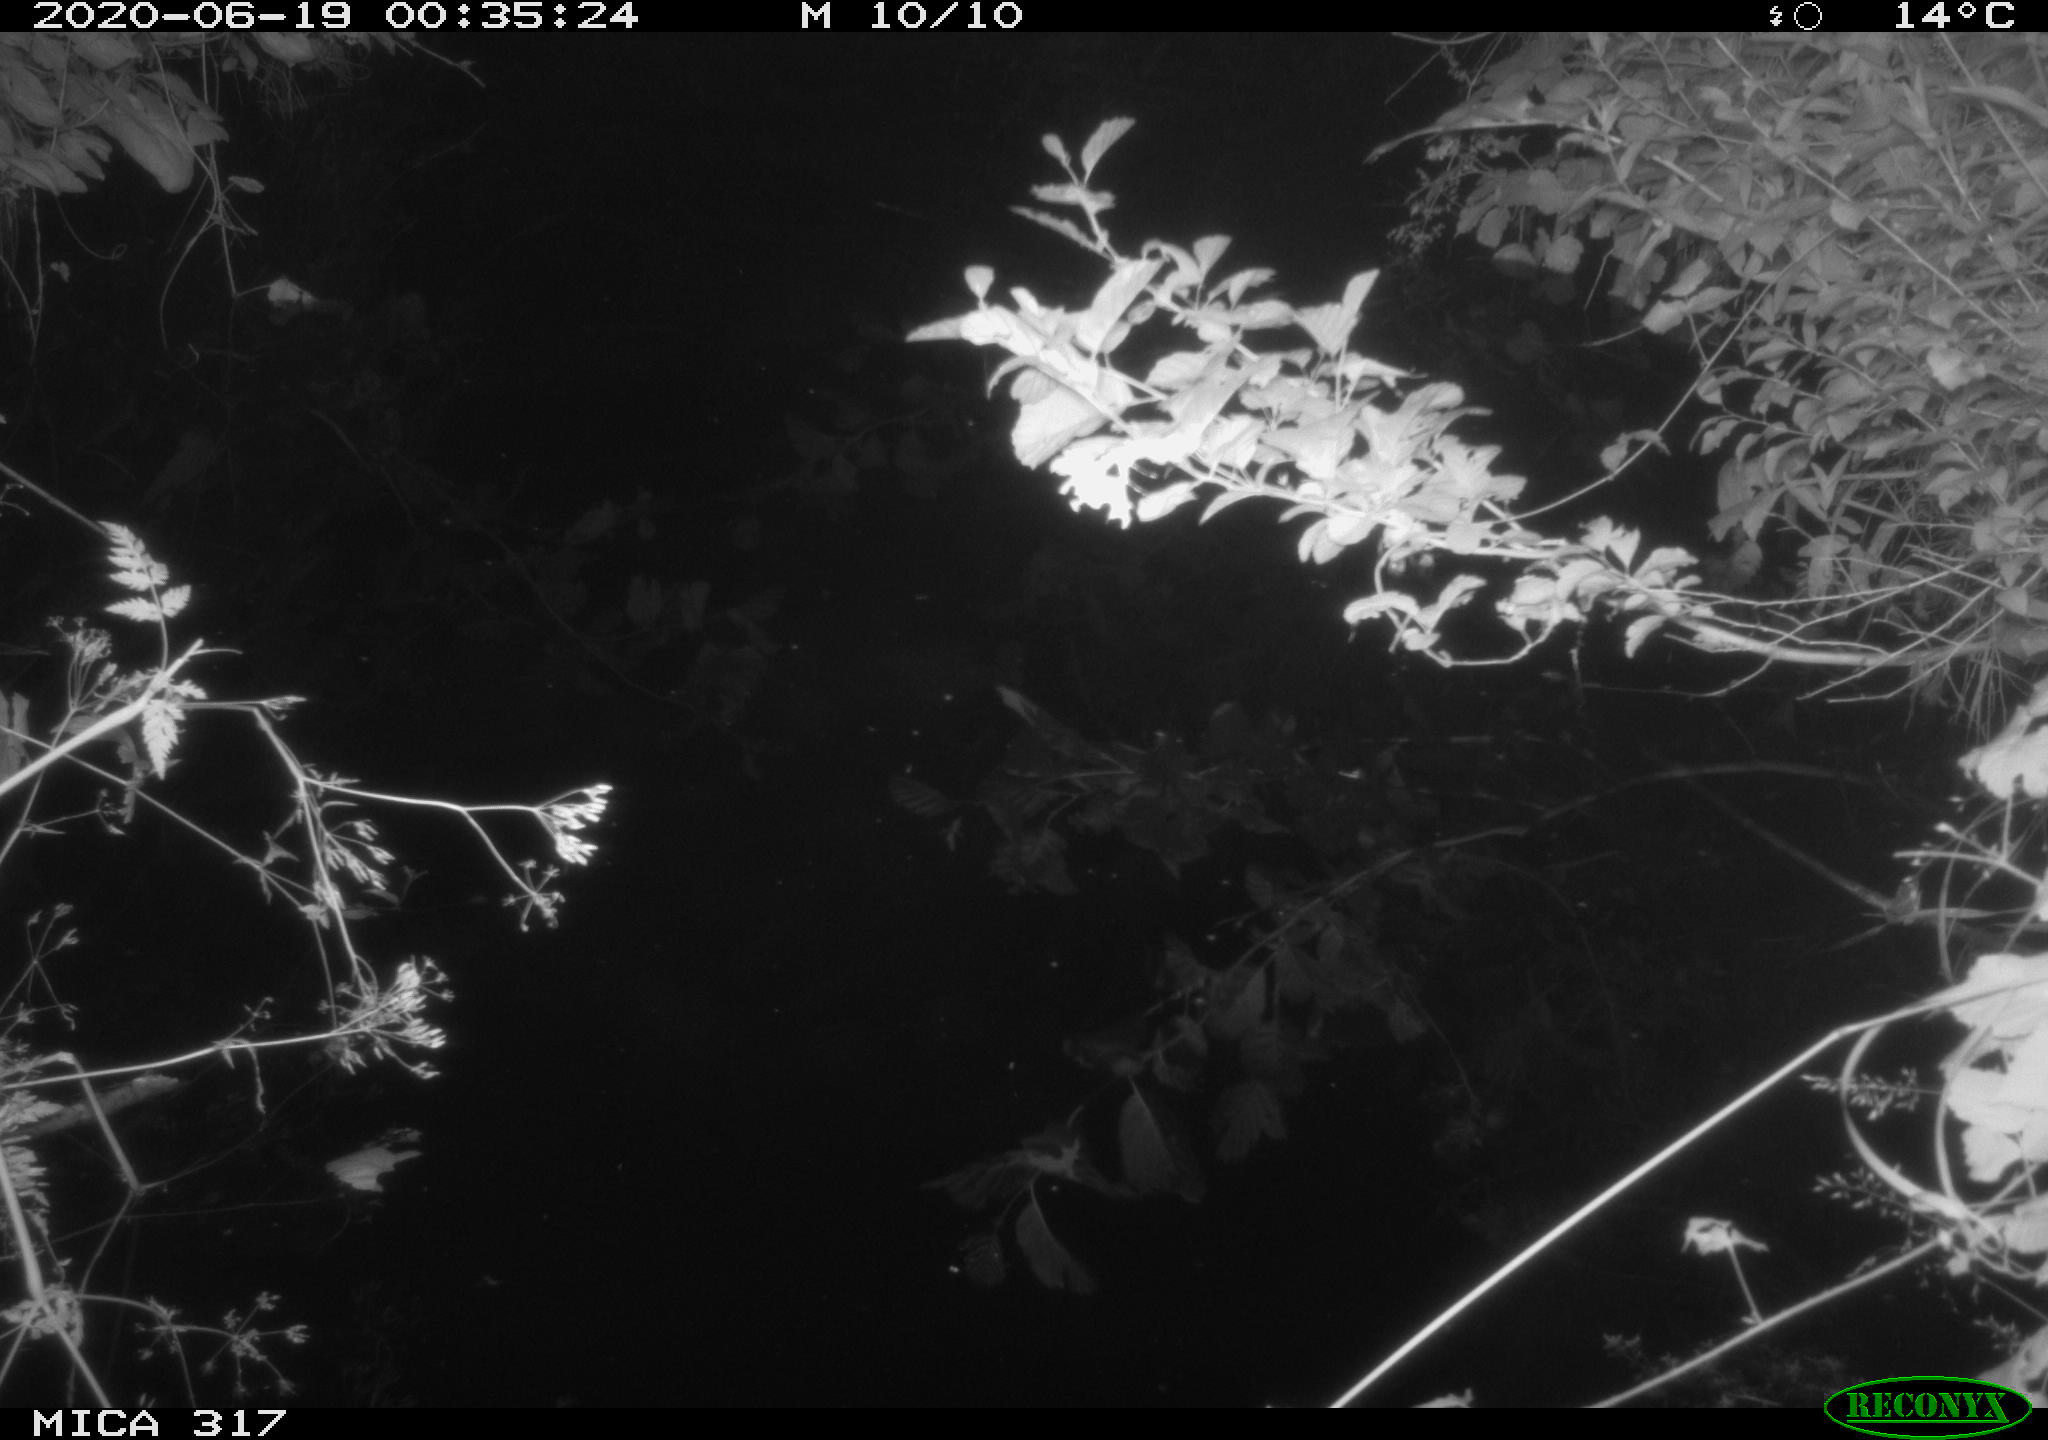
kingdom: Animalia
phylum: Chordata
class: Aves
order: Anseriformes
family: Anatidae
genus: Anas
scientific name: Anas platyrhynchos
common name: Mallard
